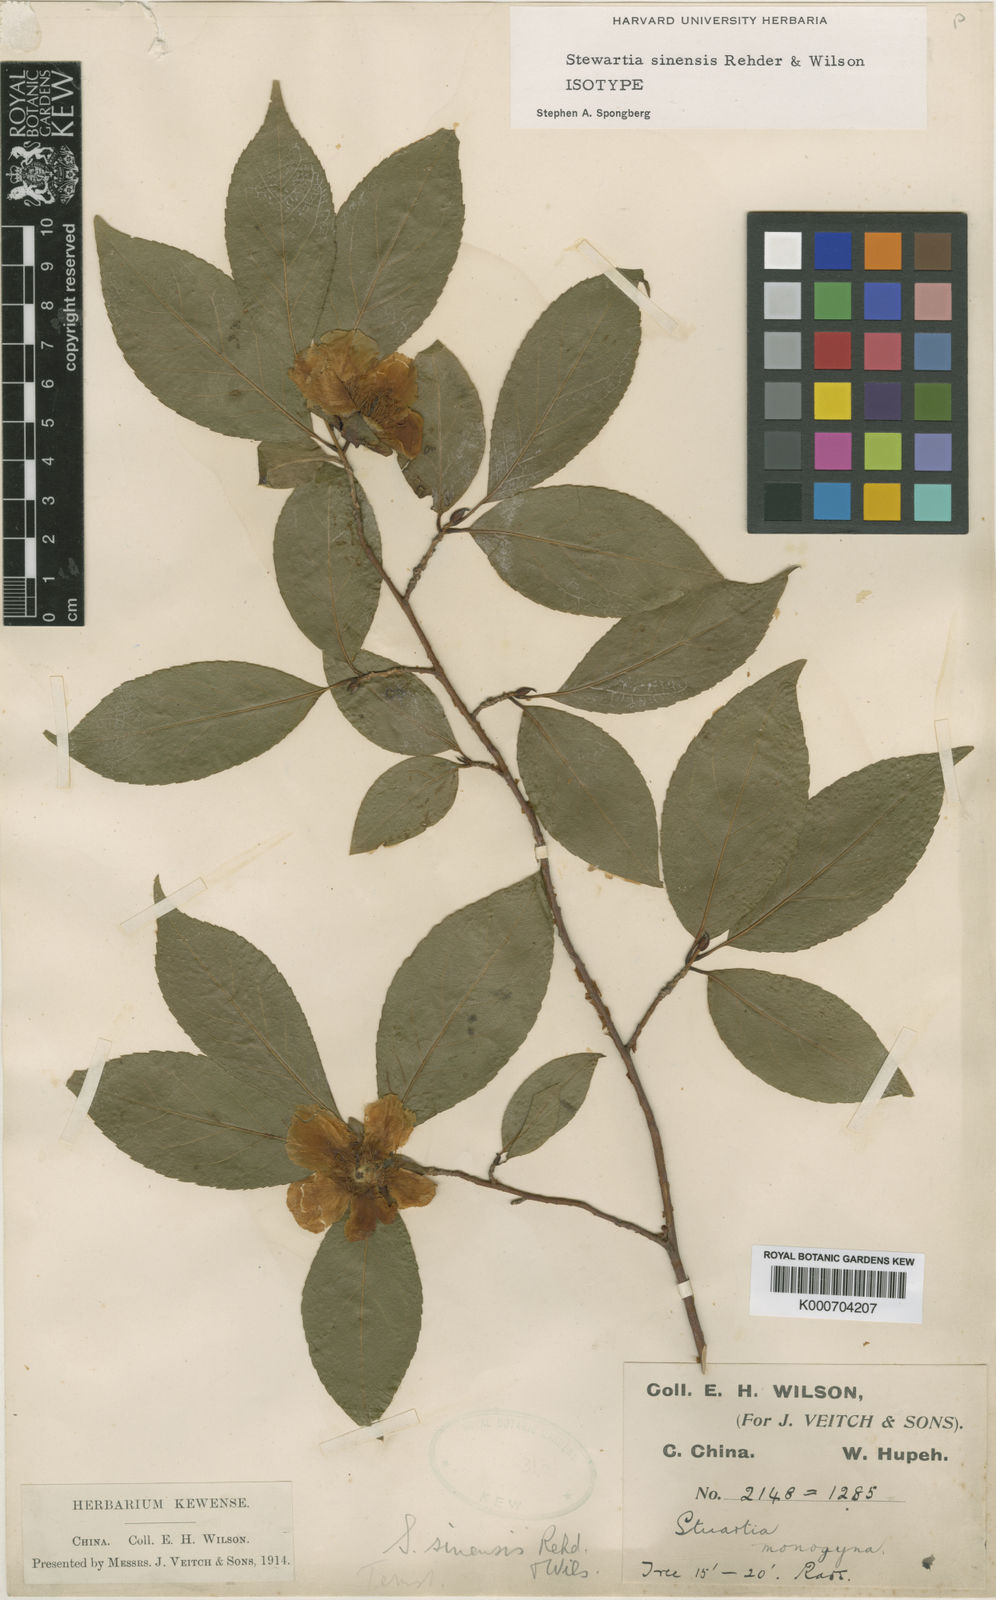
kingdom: Plantae
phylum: Tracheophyta
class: Magnoliopsida
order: Ericales
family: Theaceae
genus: Stewartia
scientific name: Stewartia rostrata
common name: Upright stewartia
